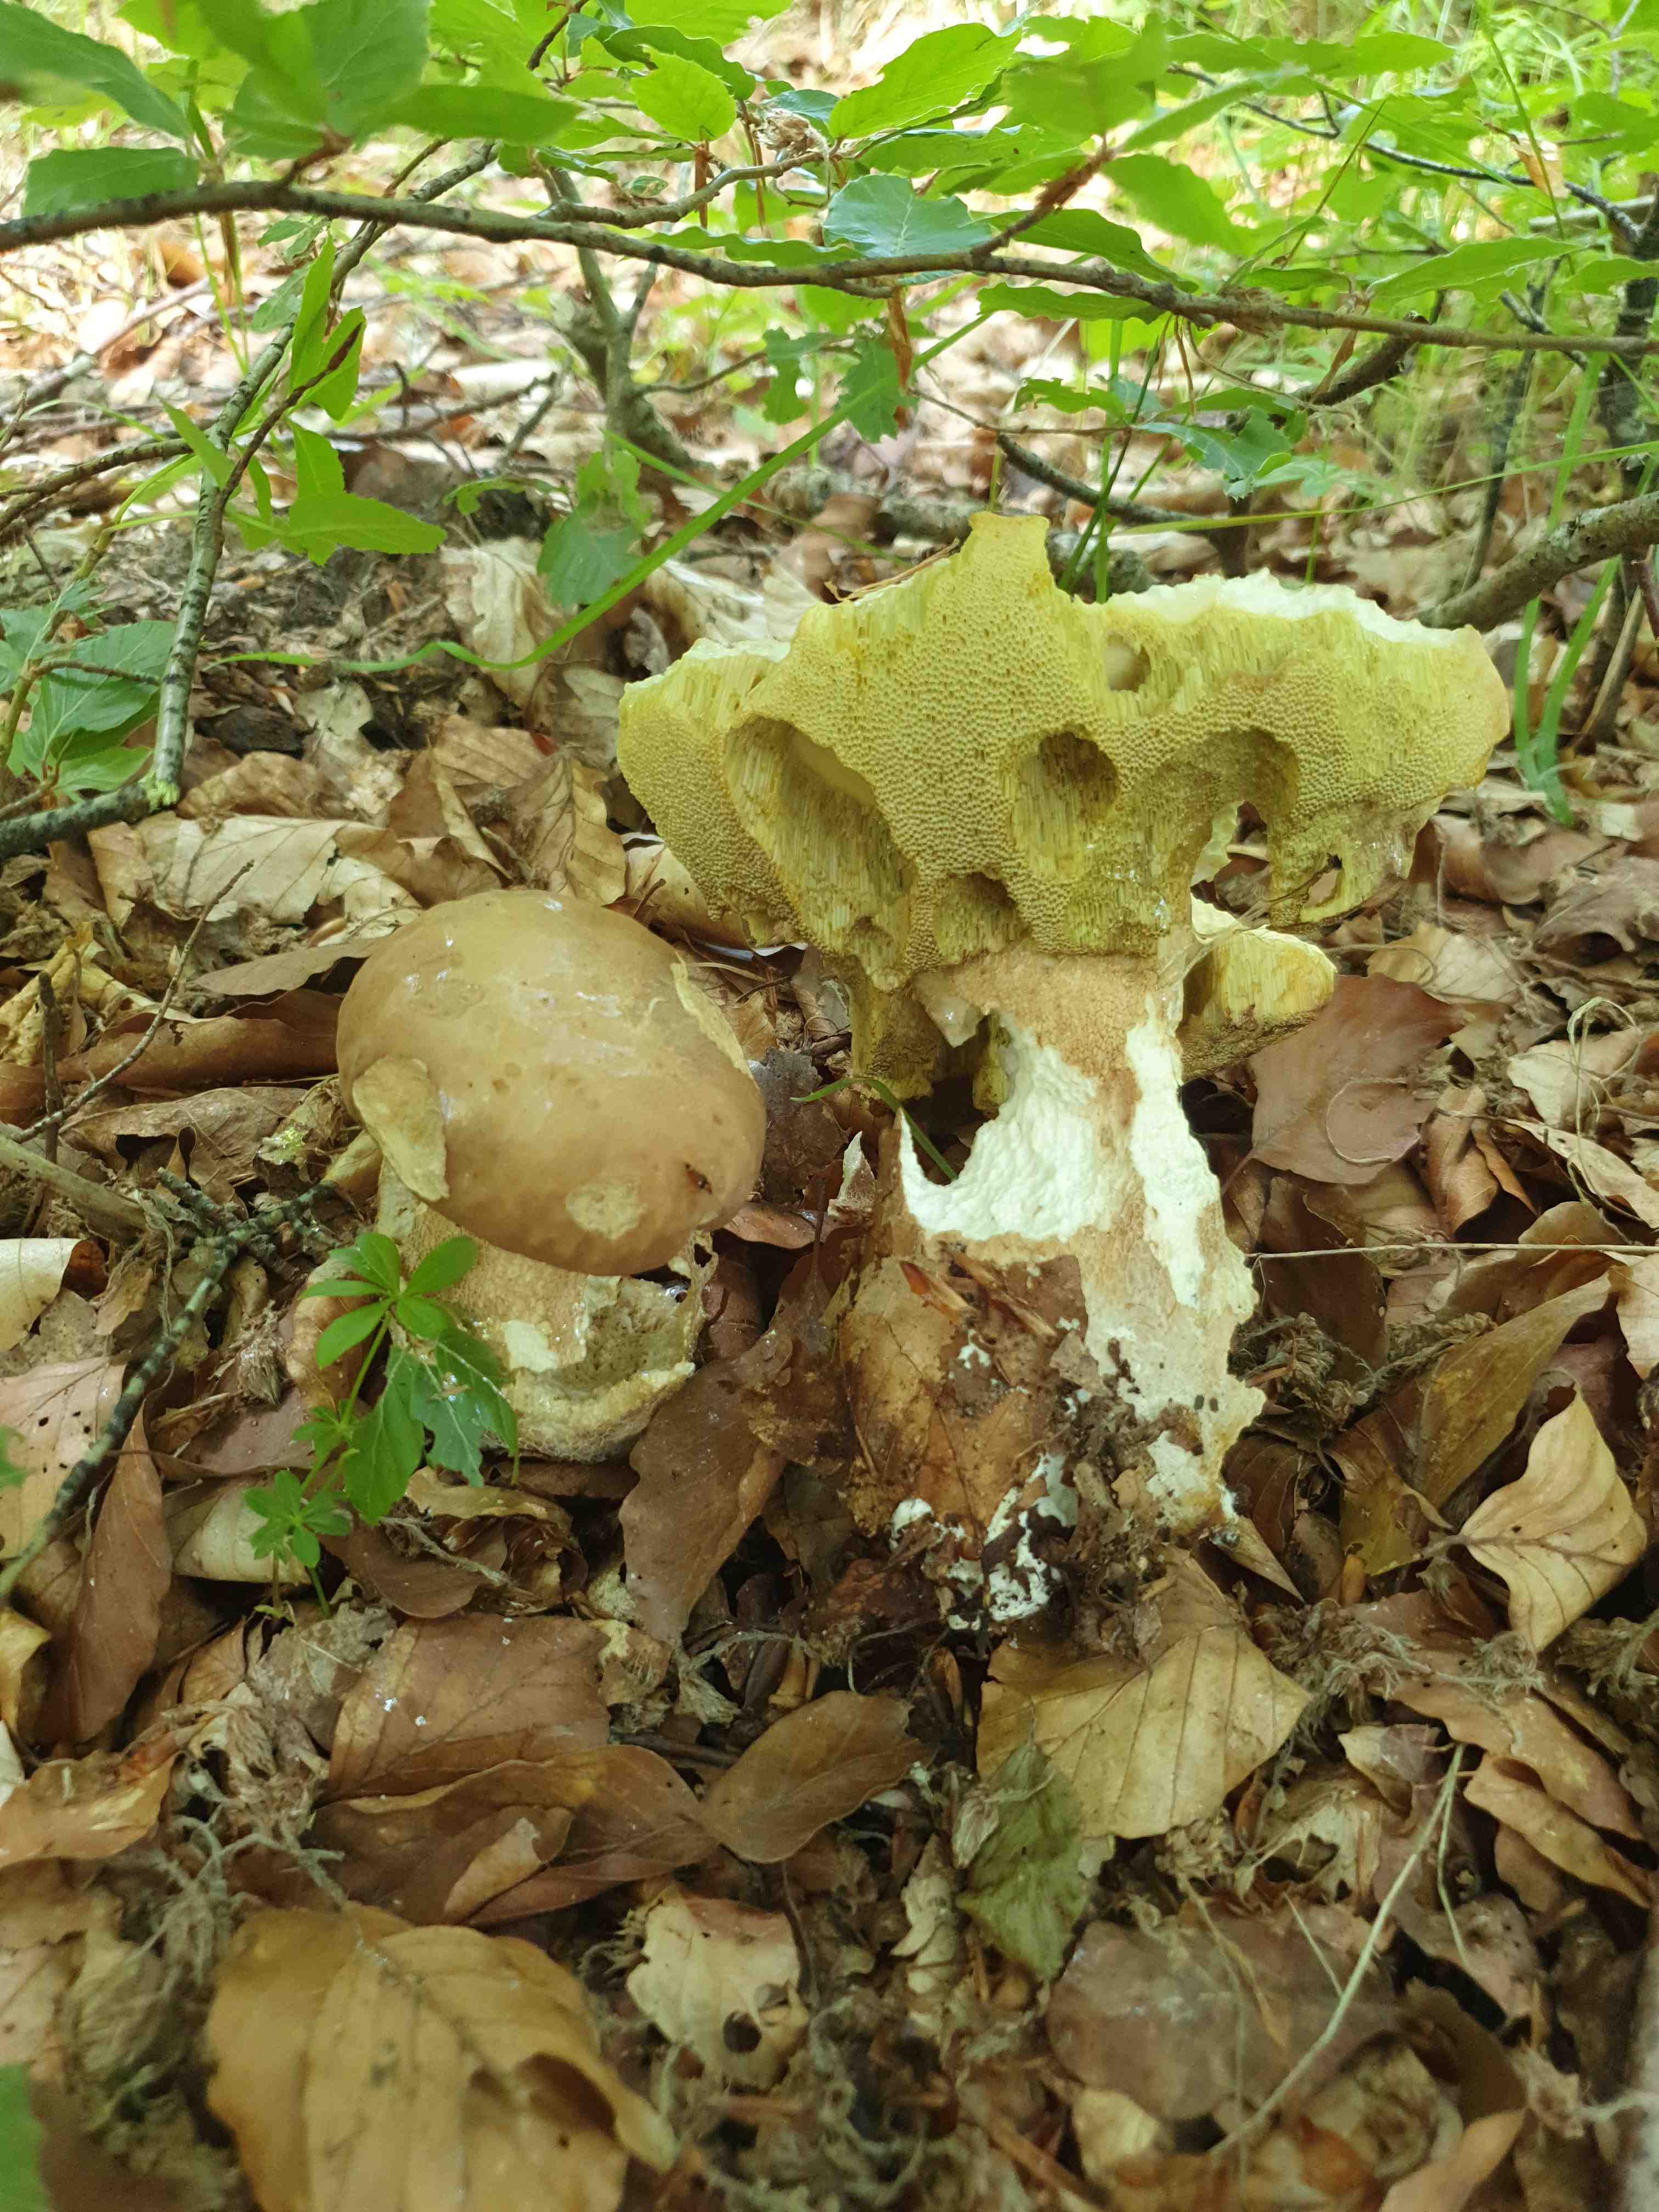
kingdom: Fungi
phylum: Basidiomycota
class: Agaricomycetes
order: Boletales
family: Boletaceae
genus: Boletus
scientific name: Boletus reticulatus
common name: sommer-rørhat
